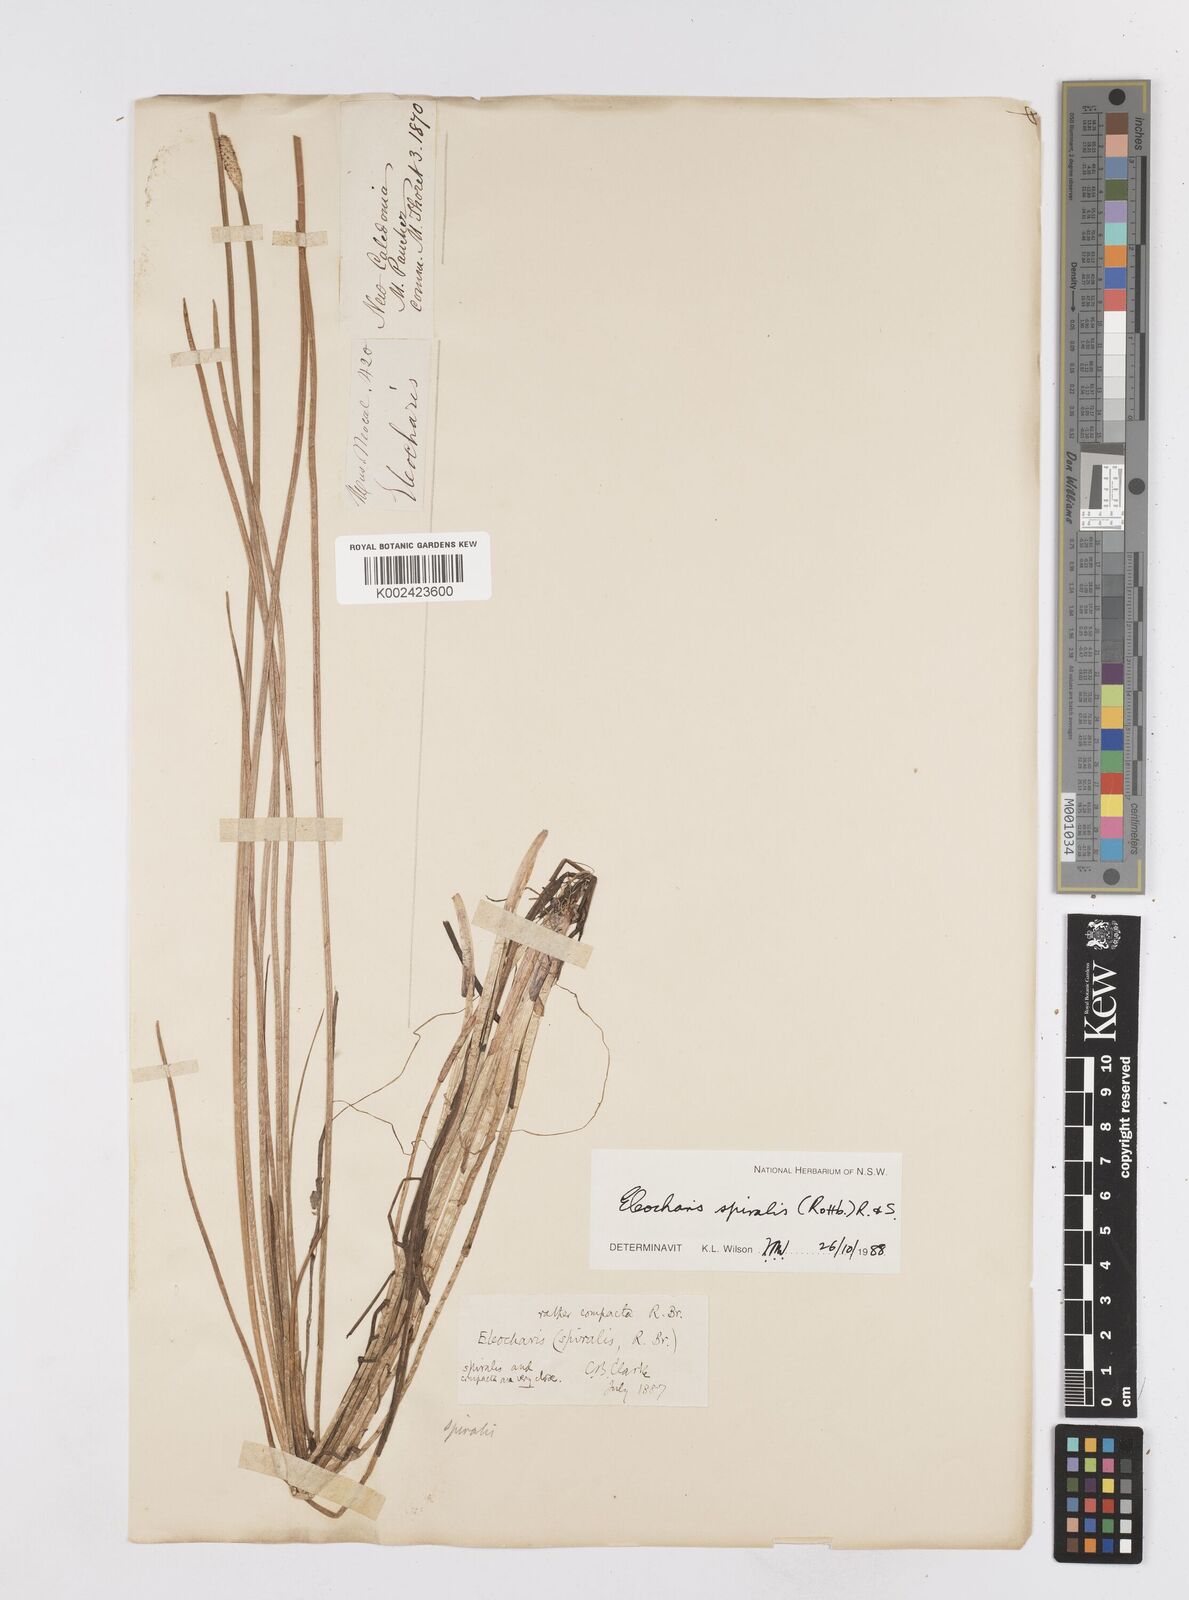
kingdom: Plantae
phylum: Tracheophyta
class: Liliopsida
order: Poales
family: Cyperaceae
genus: Eleocharis
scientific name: Eleocharis spiralis
